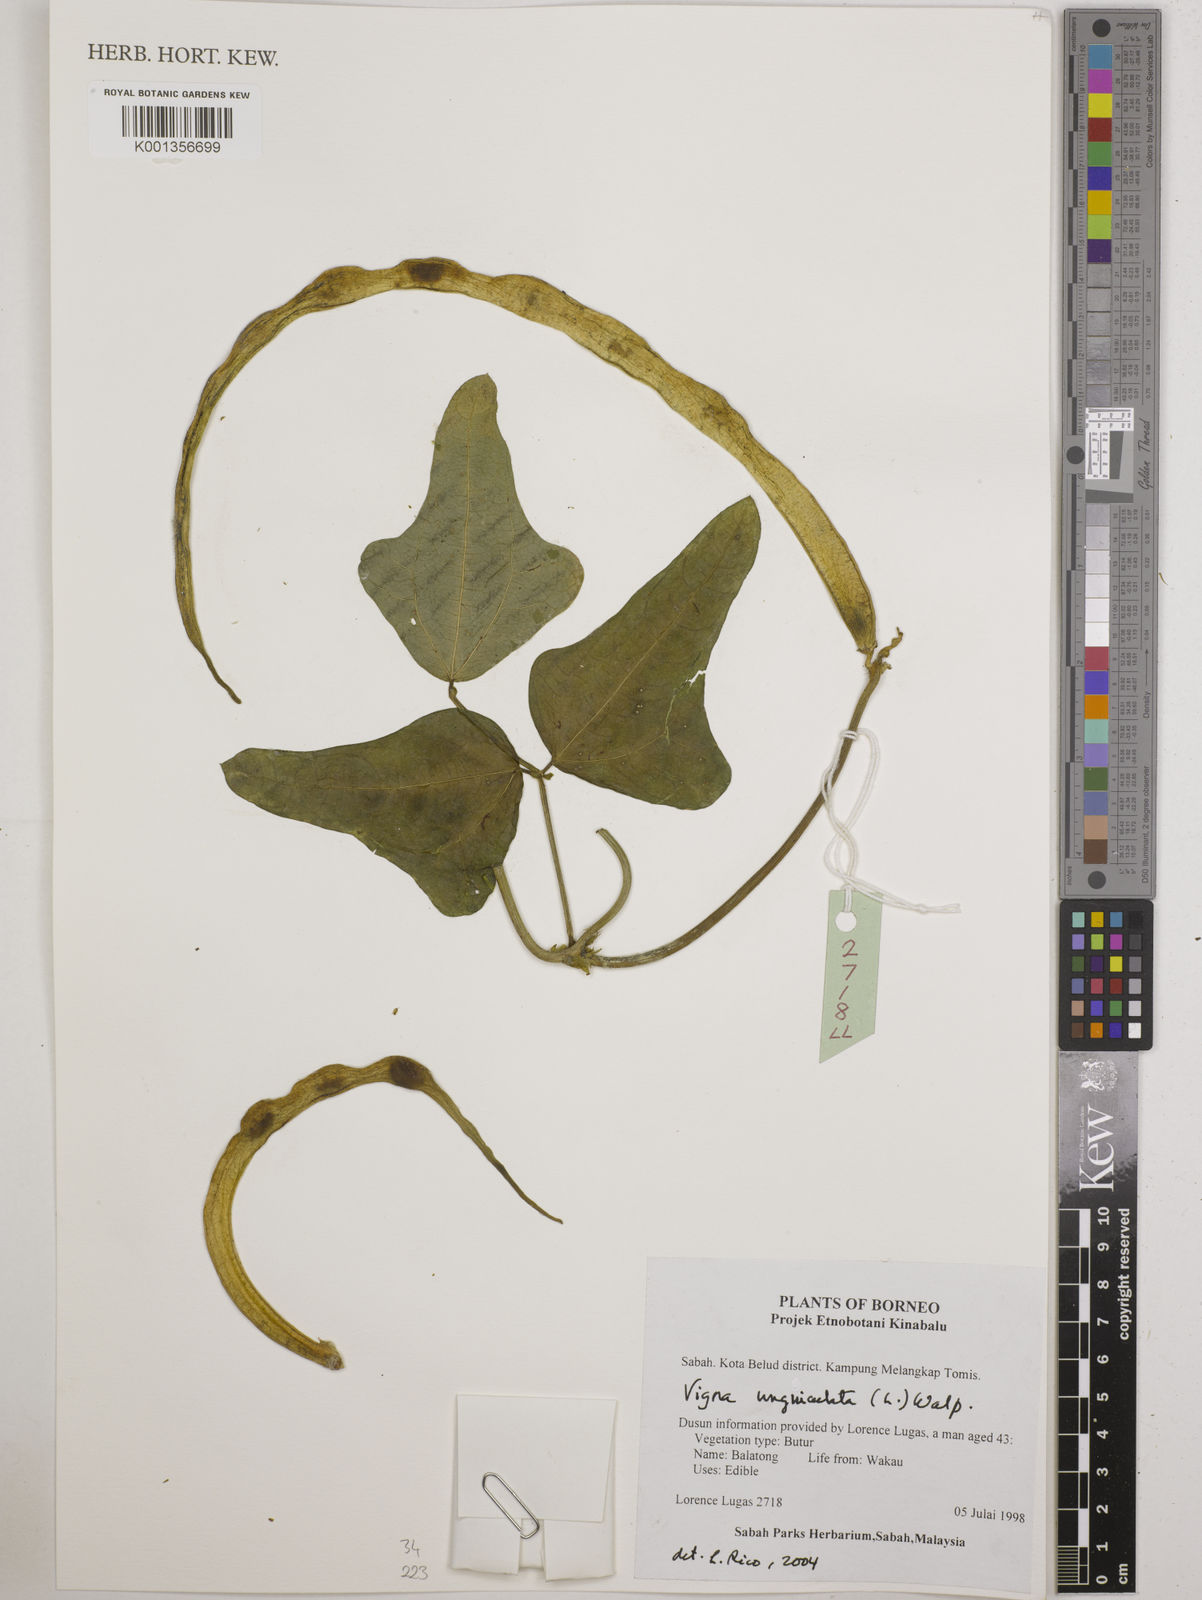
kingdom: Plantae
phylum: Tracheophyta
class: Magnoliopsida
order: Fabales
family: Fabaceae
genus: Vigna
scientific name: Vigna unguiculata
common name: Cowpea
